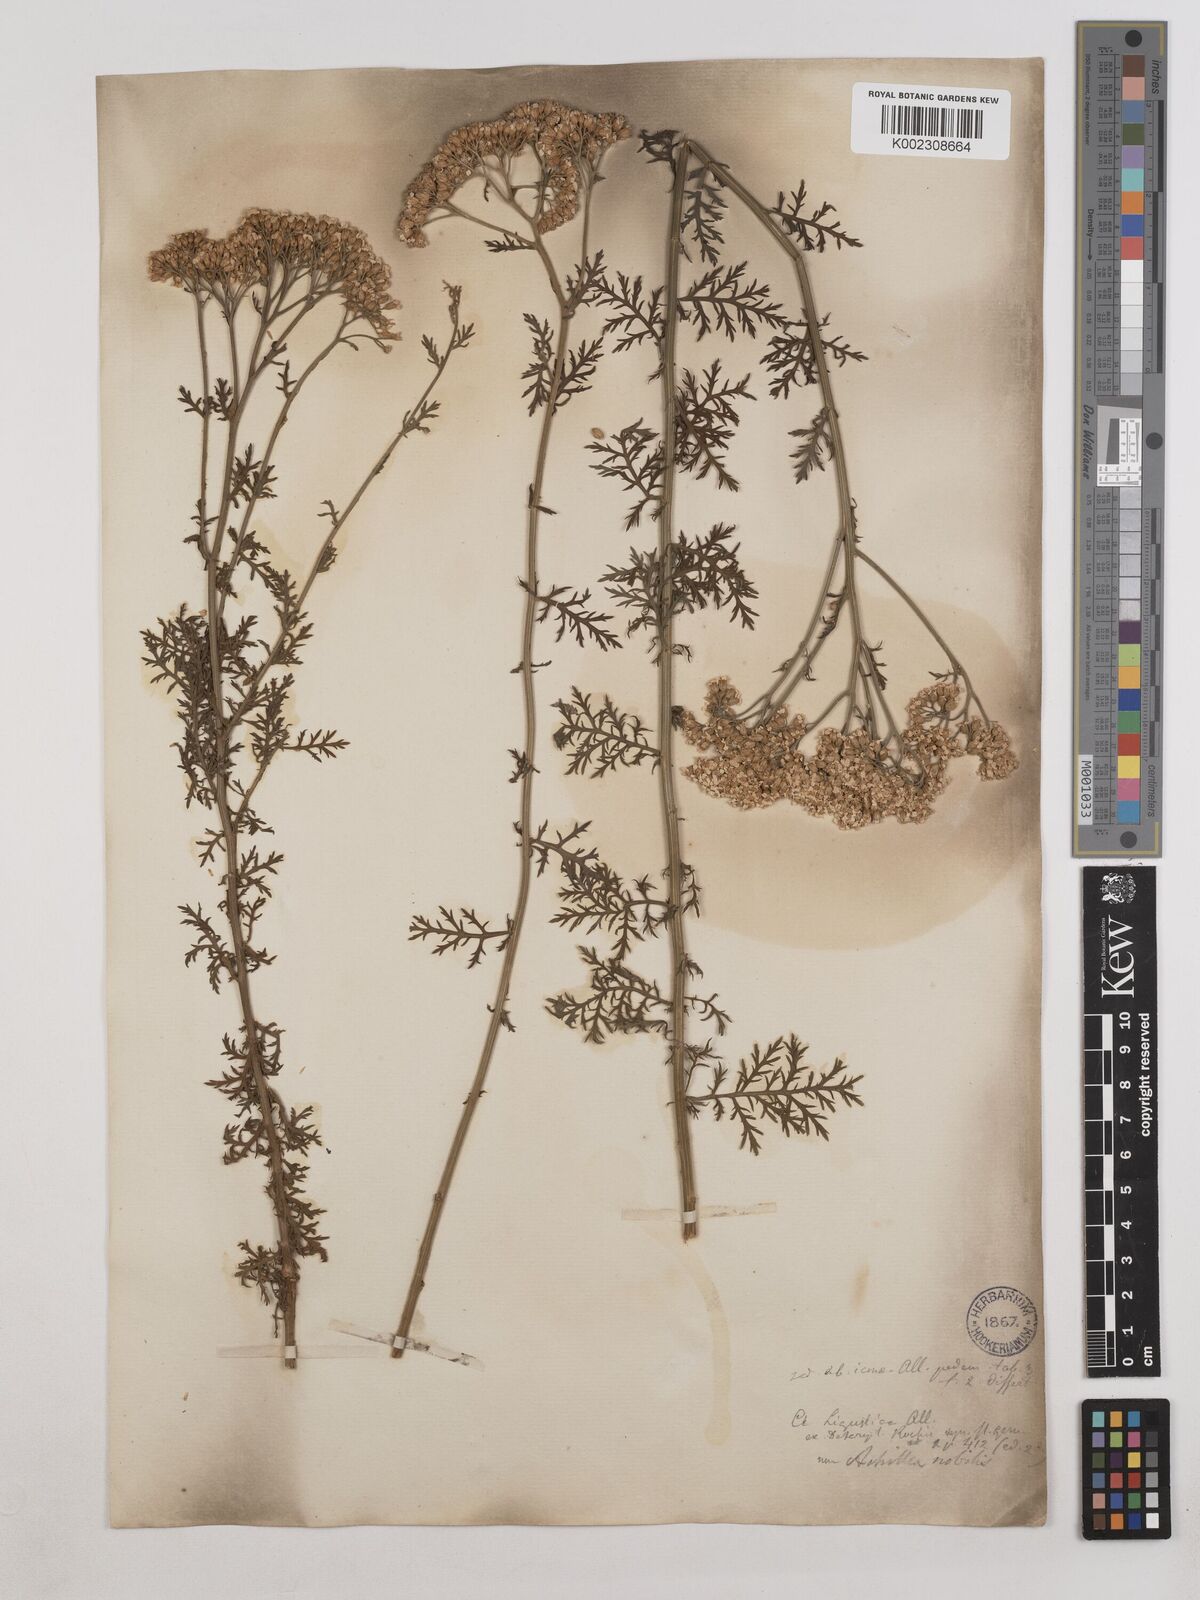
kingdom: Plantae
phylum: Tracheophyta
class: Magnoliopsida
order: Asterales
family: Asteraceae
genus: Achillea
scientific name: Achillea ligustica
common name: Southern yarrow
